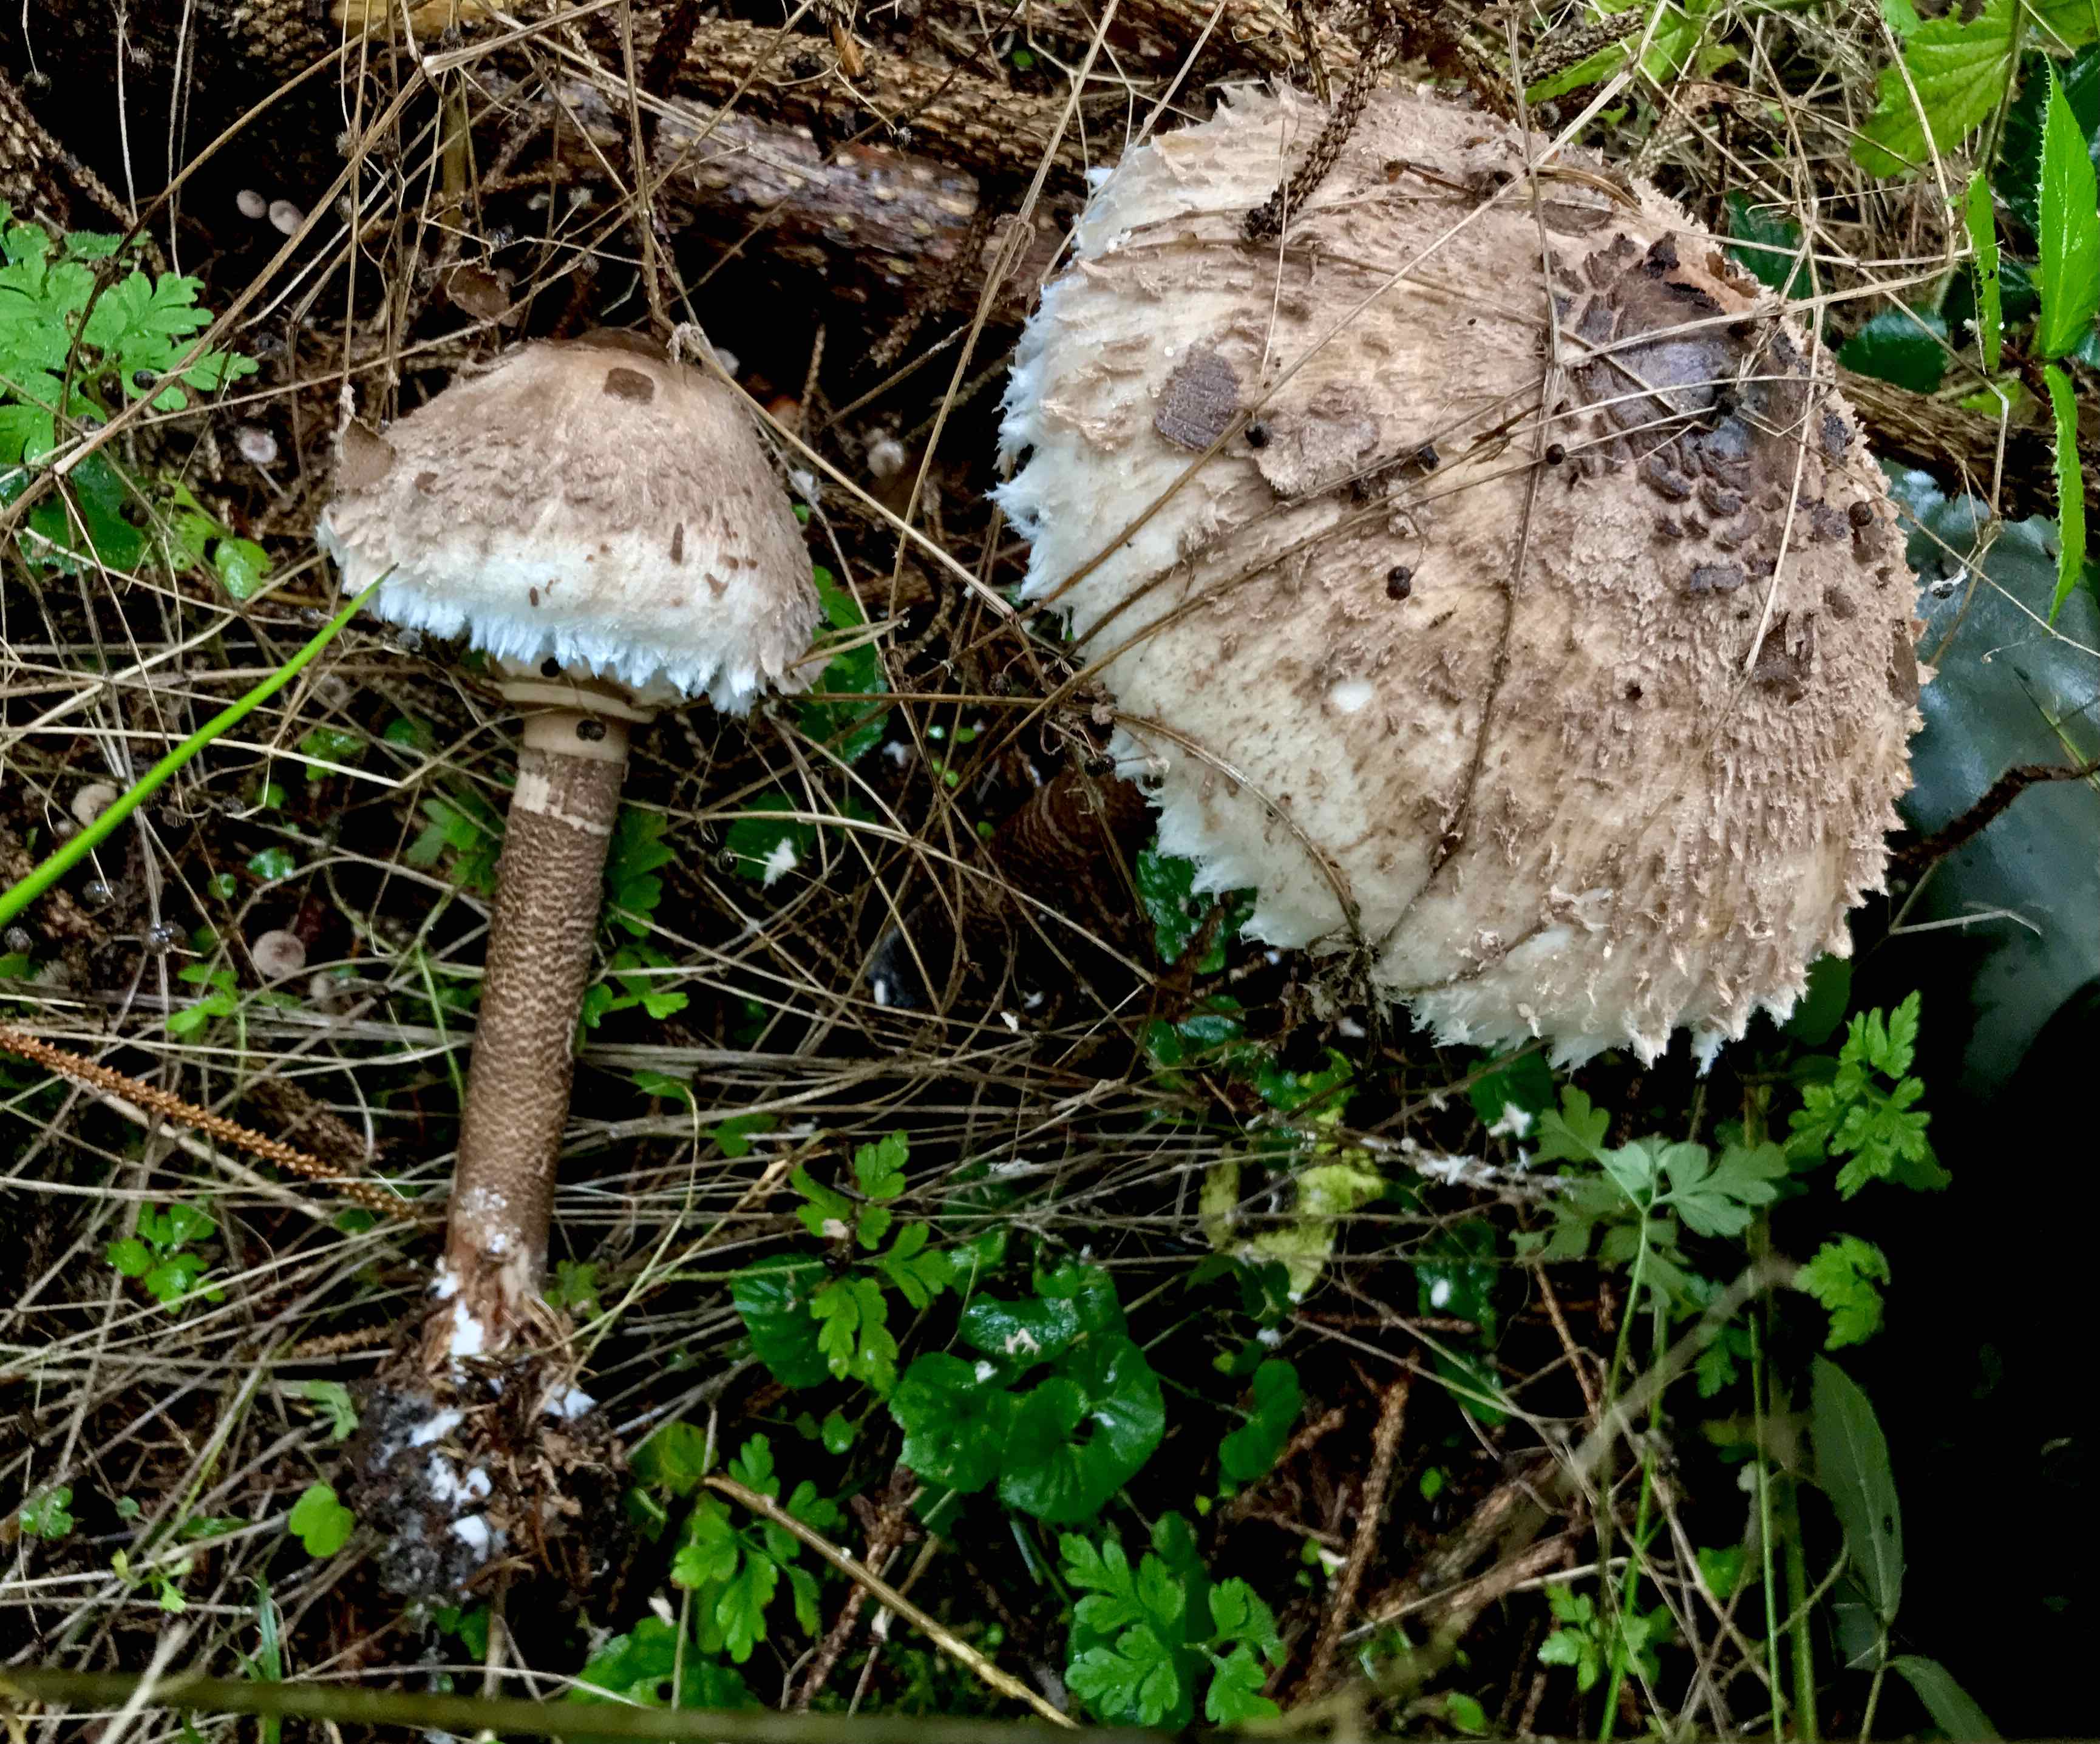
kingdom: Fungi
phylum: Basidiomycota
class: Agaricomycetes
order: Agaricales
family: Agaricaceae
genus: Macrolepiota
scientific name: Macrolepiota procera
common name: stor kæmpeparasolhat
